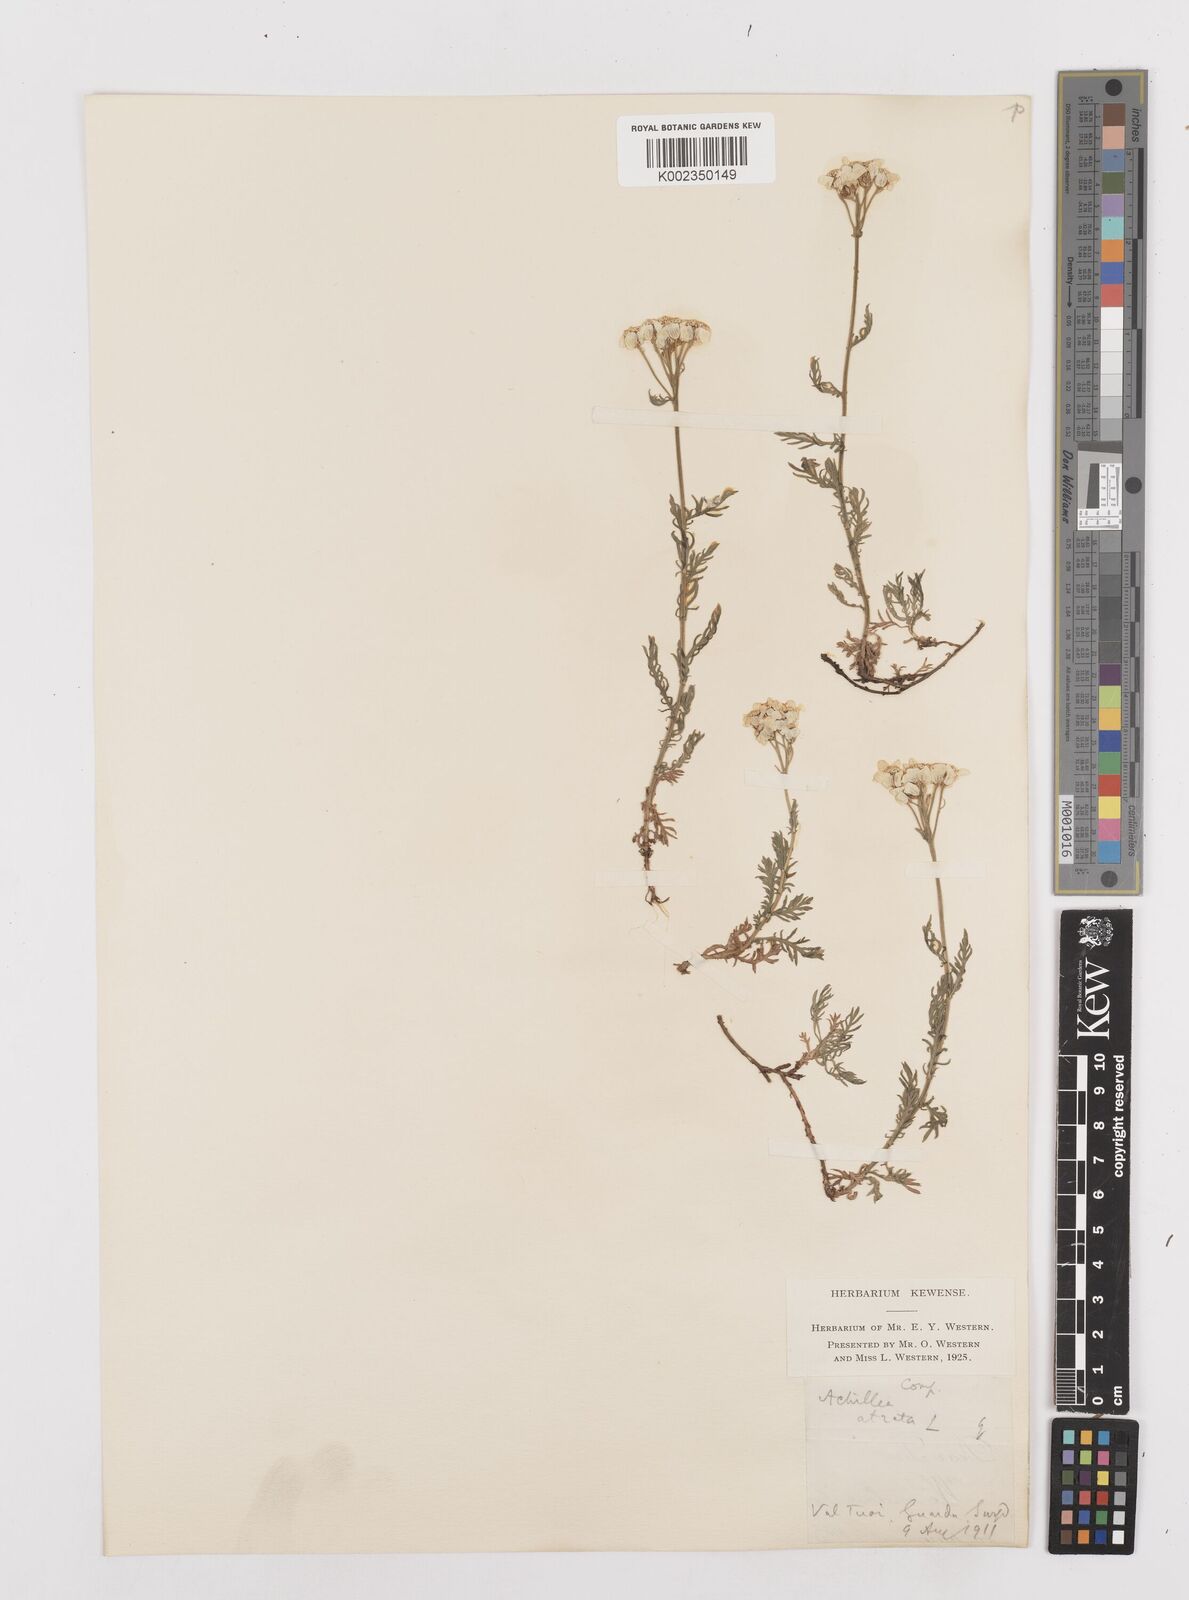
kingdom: Plantae
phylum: Tracheophyta
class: Magnoliopsida
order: Asterales
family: Asteraceae
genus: Achillea
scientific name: Achillea atrata
